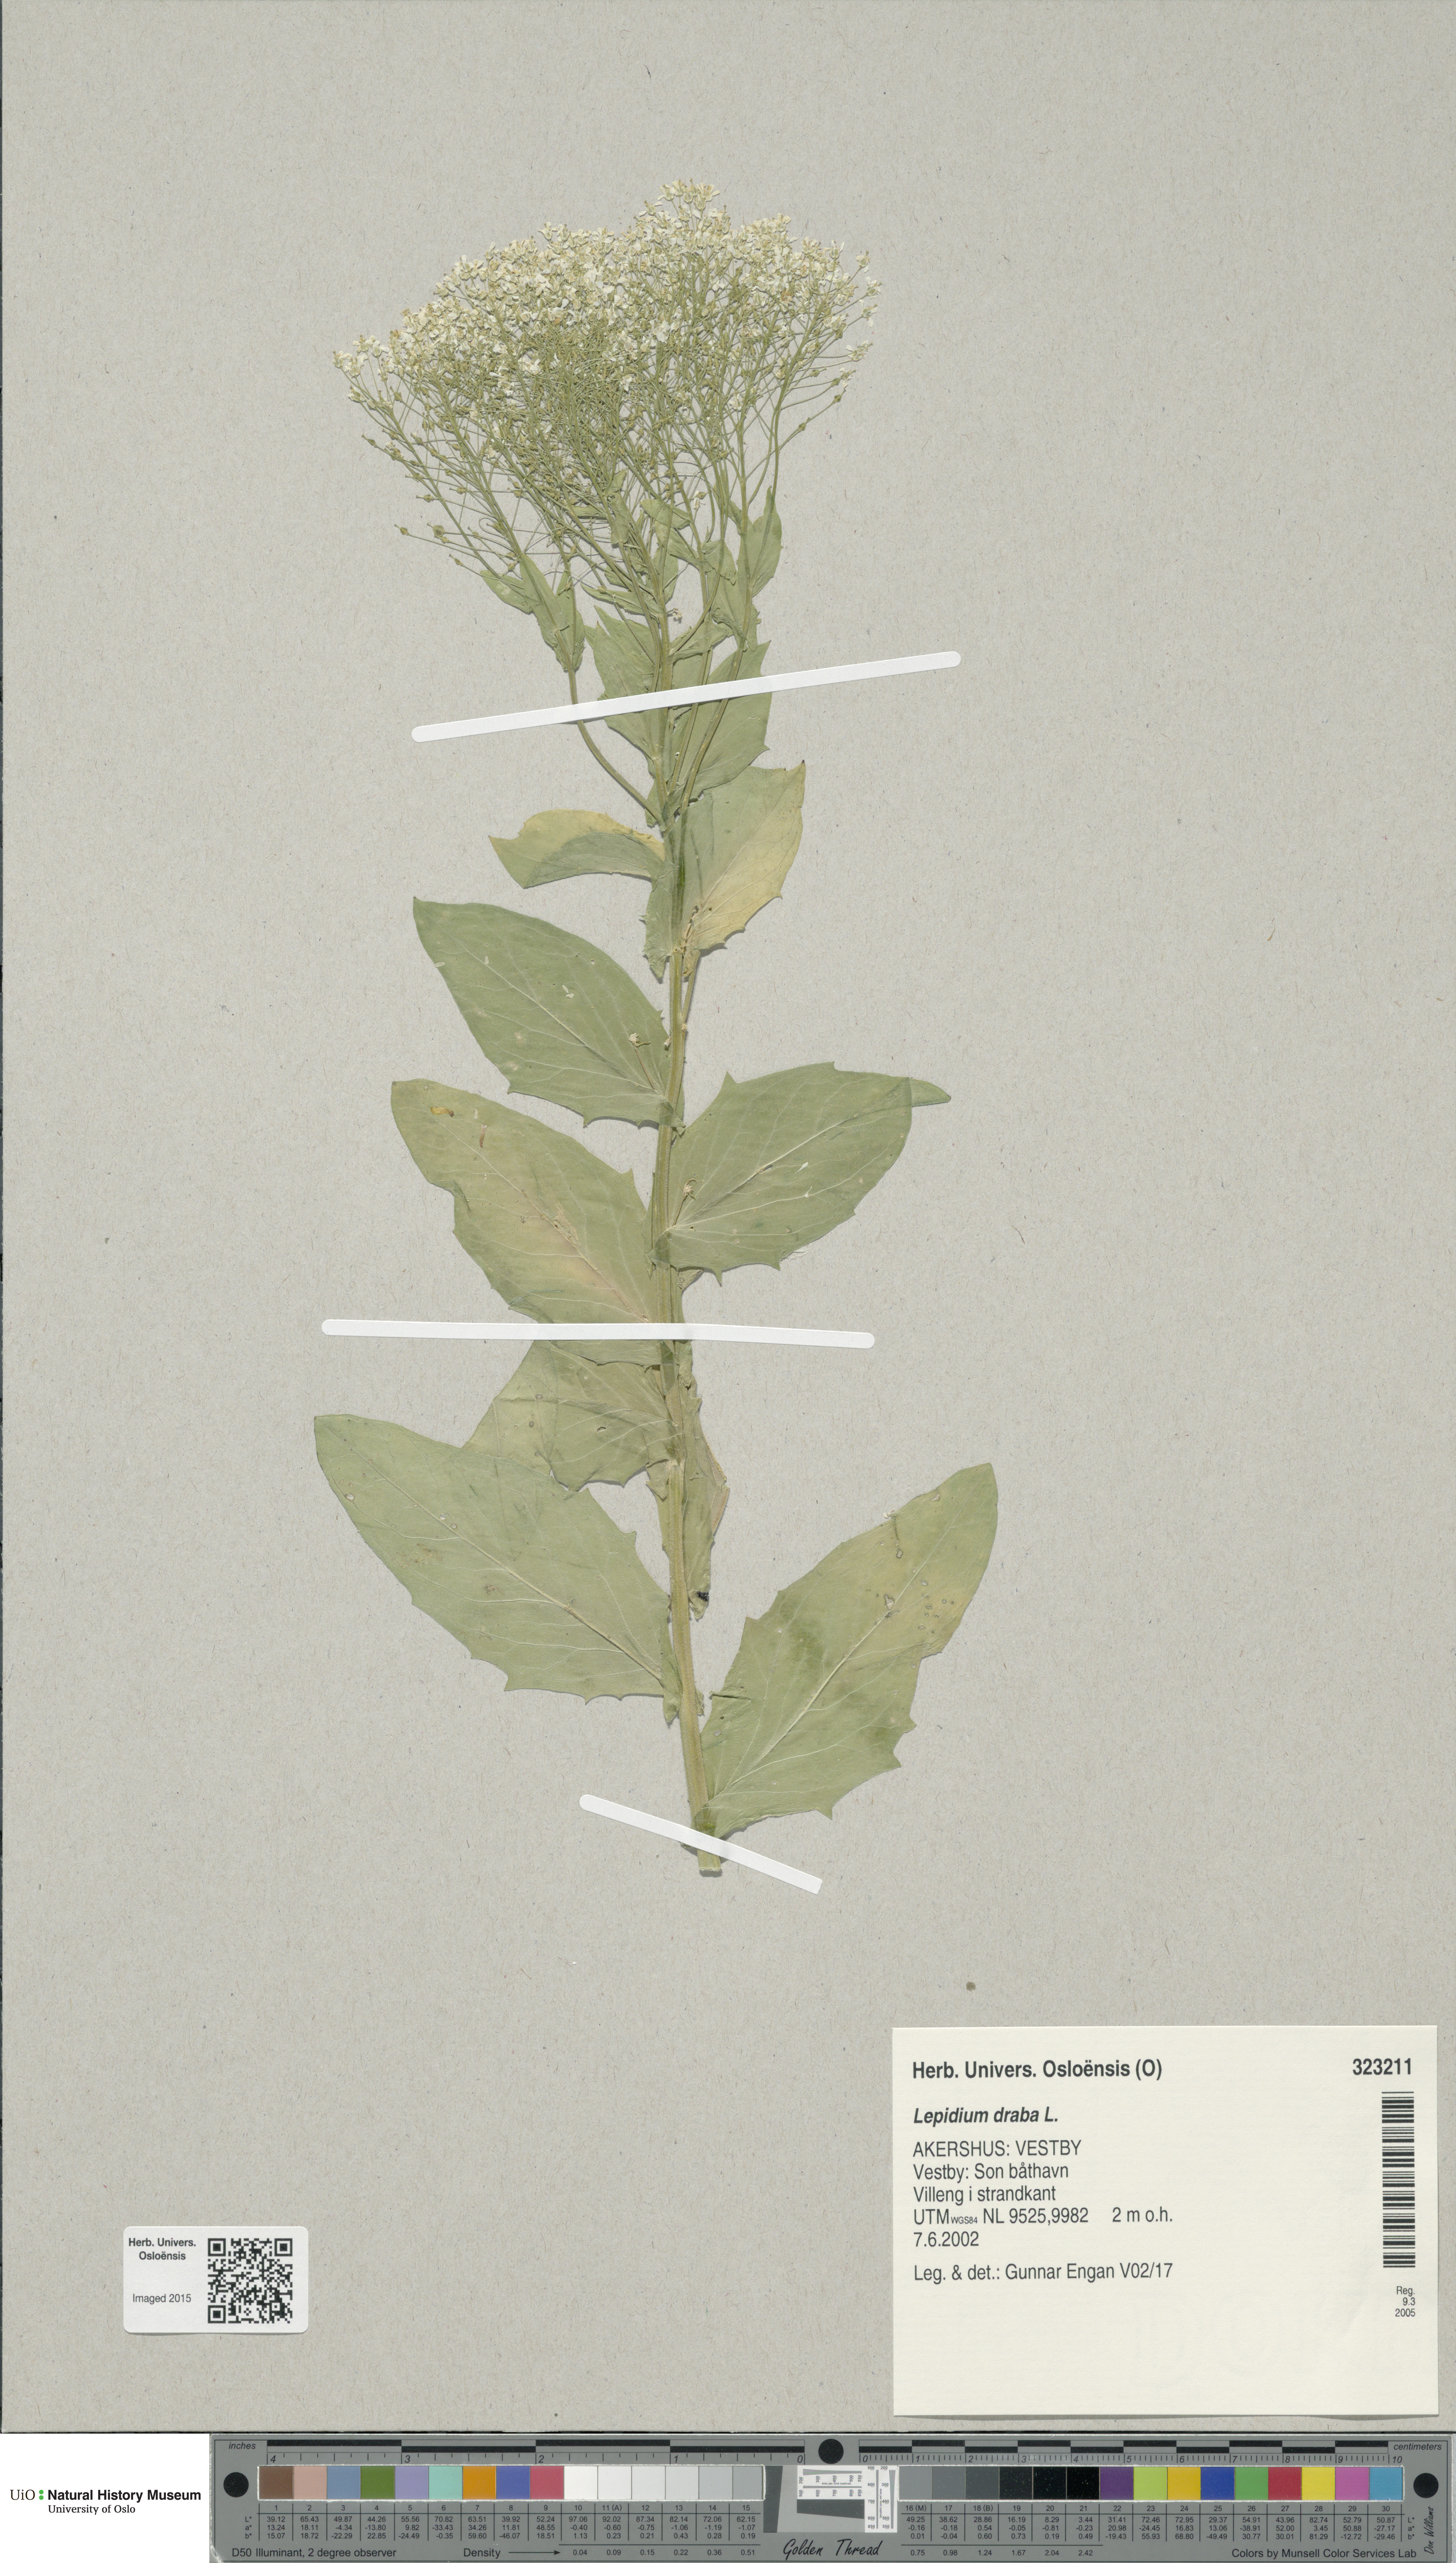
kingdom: Plantae
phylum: Tracheophyta
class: Magnoliopsida
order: Brassicales
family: Brassicaceae
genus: Lepidium
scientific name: Lepidium draba
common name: Hoary cress
